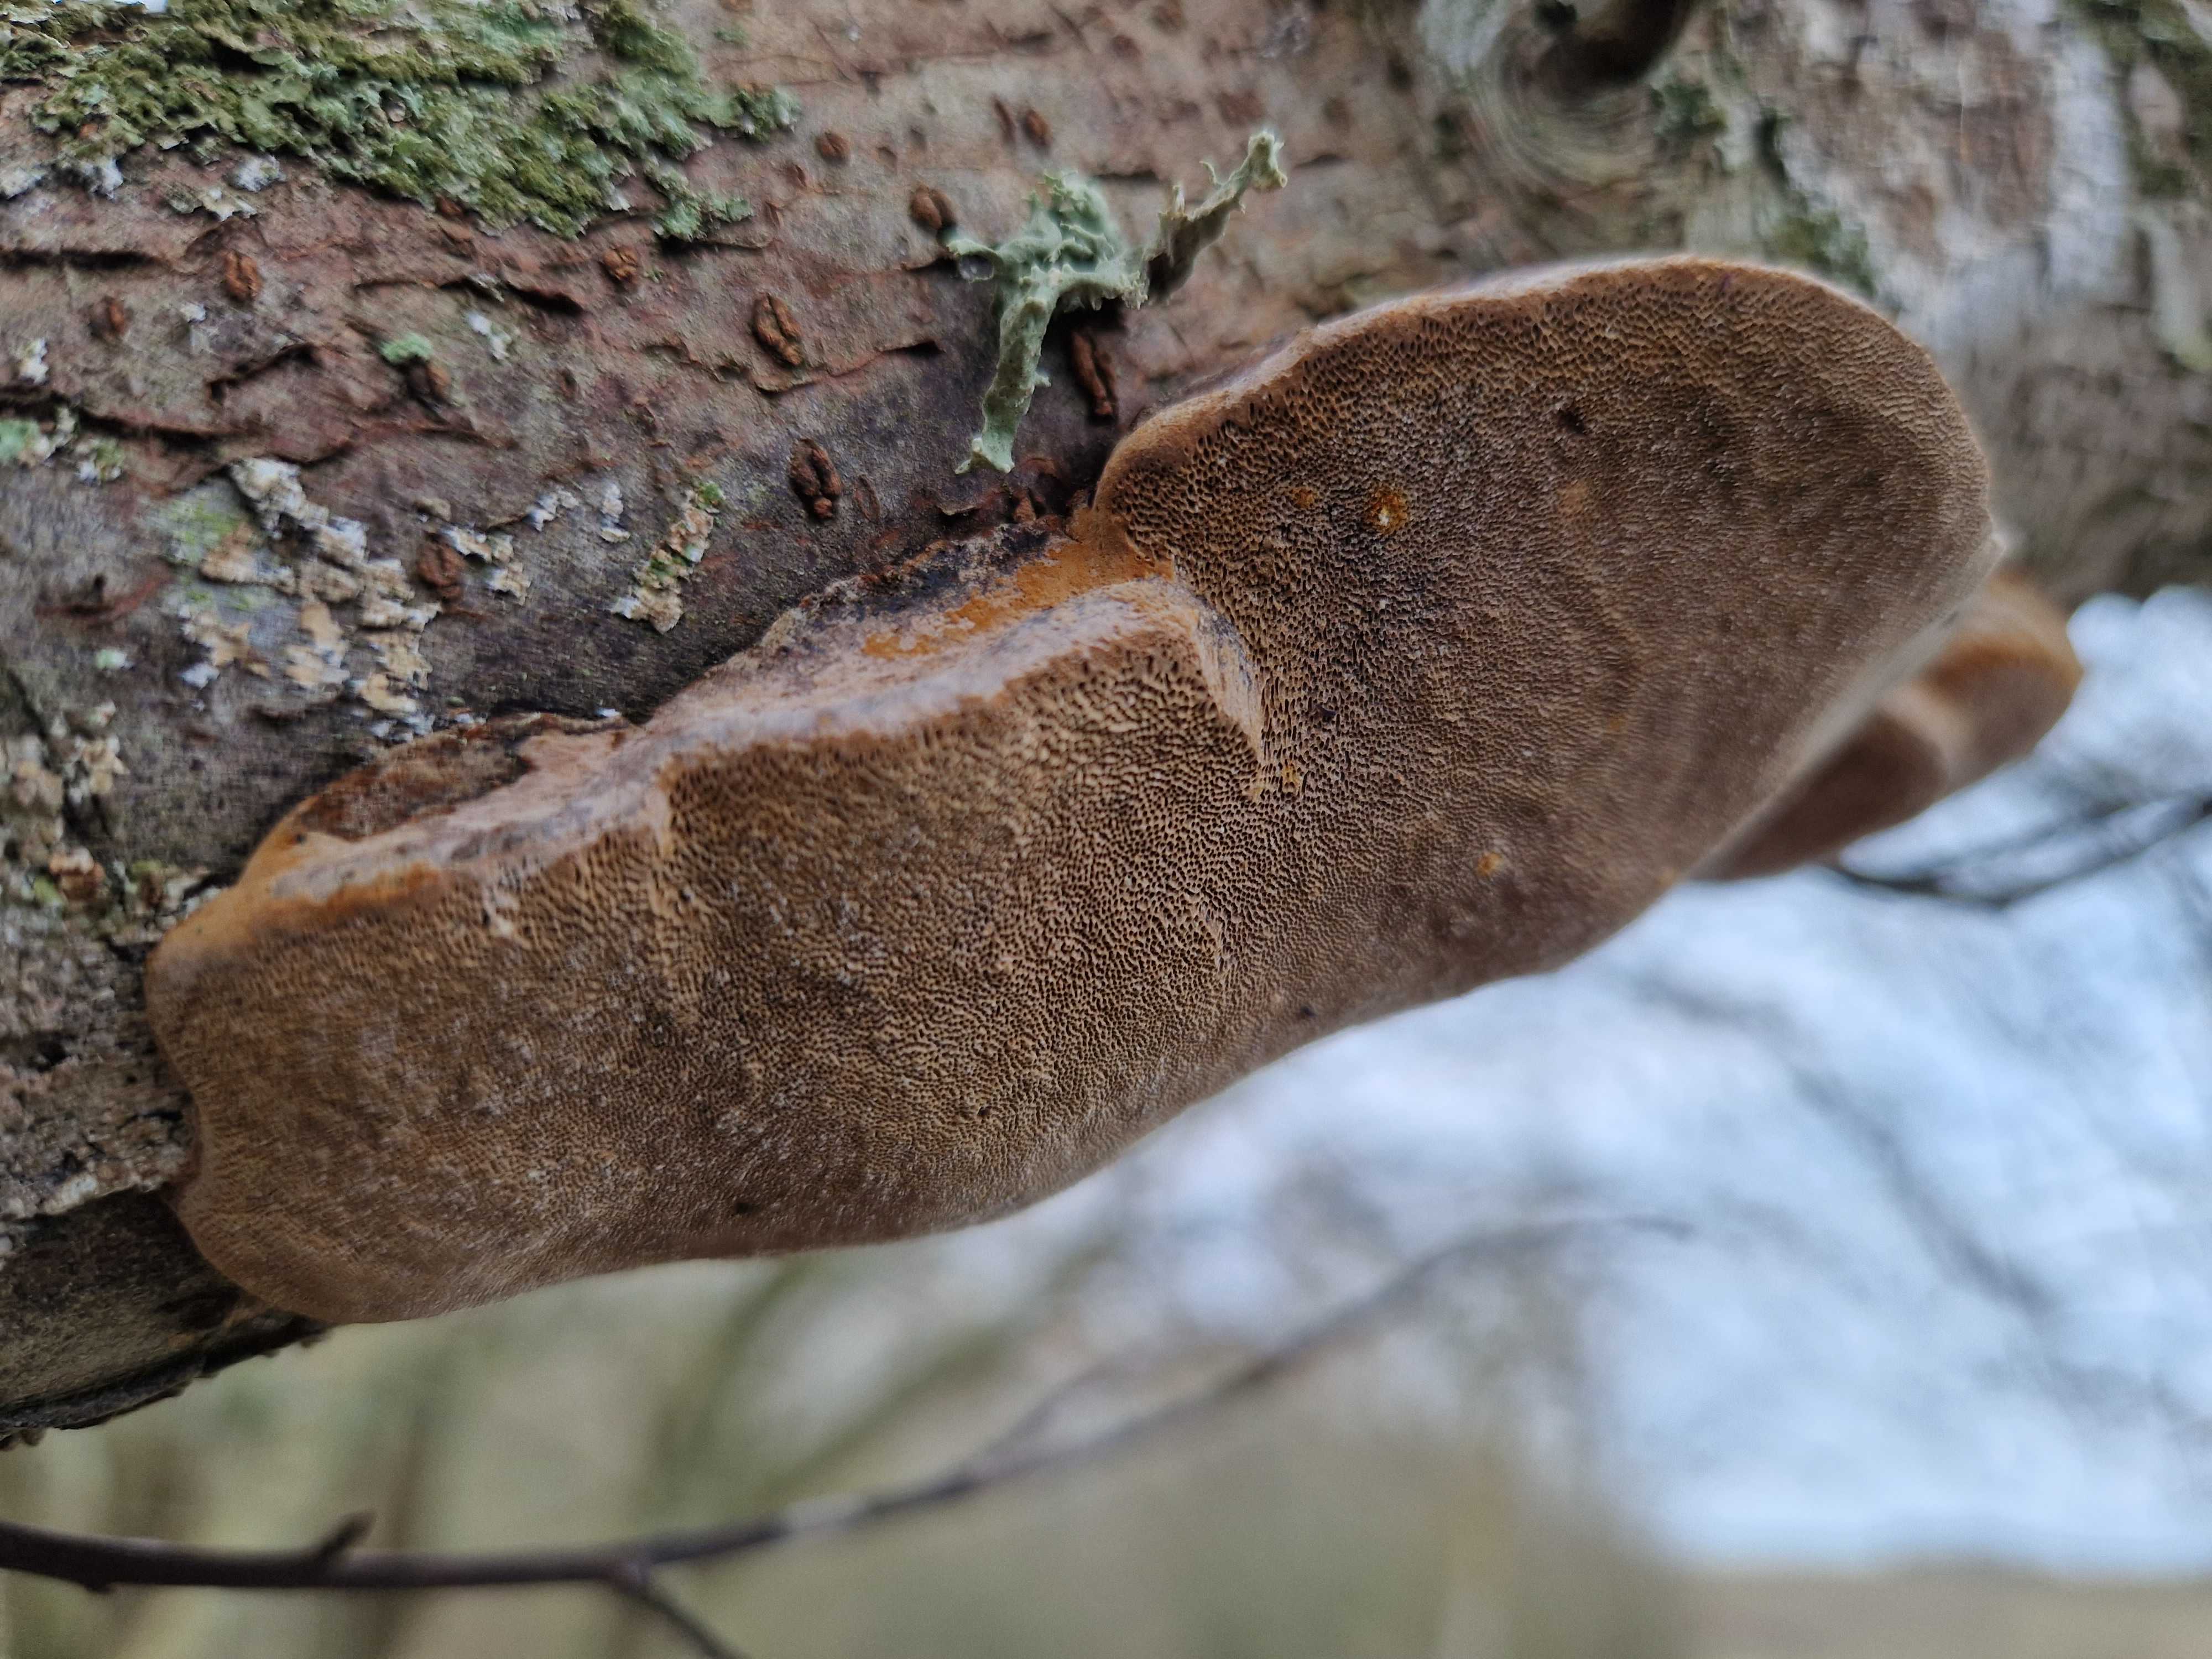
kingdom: Fungi
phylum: Basidiomycota
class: Agaricomycetes
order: Hymenochaetales
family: Hymenochaetaceae
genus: Phellinus
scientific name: Phellinus pomaceus
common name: blomme-ildporesvamp
